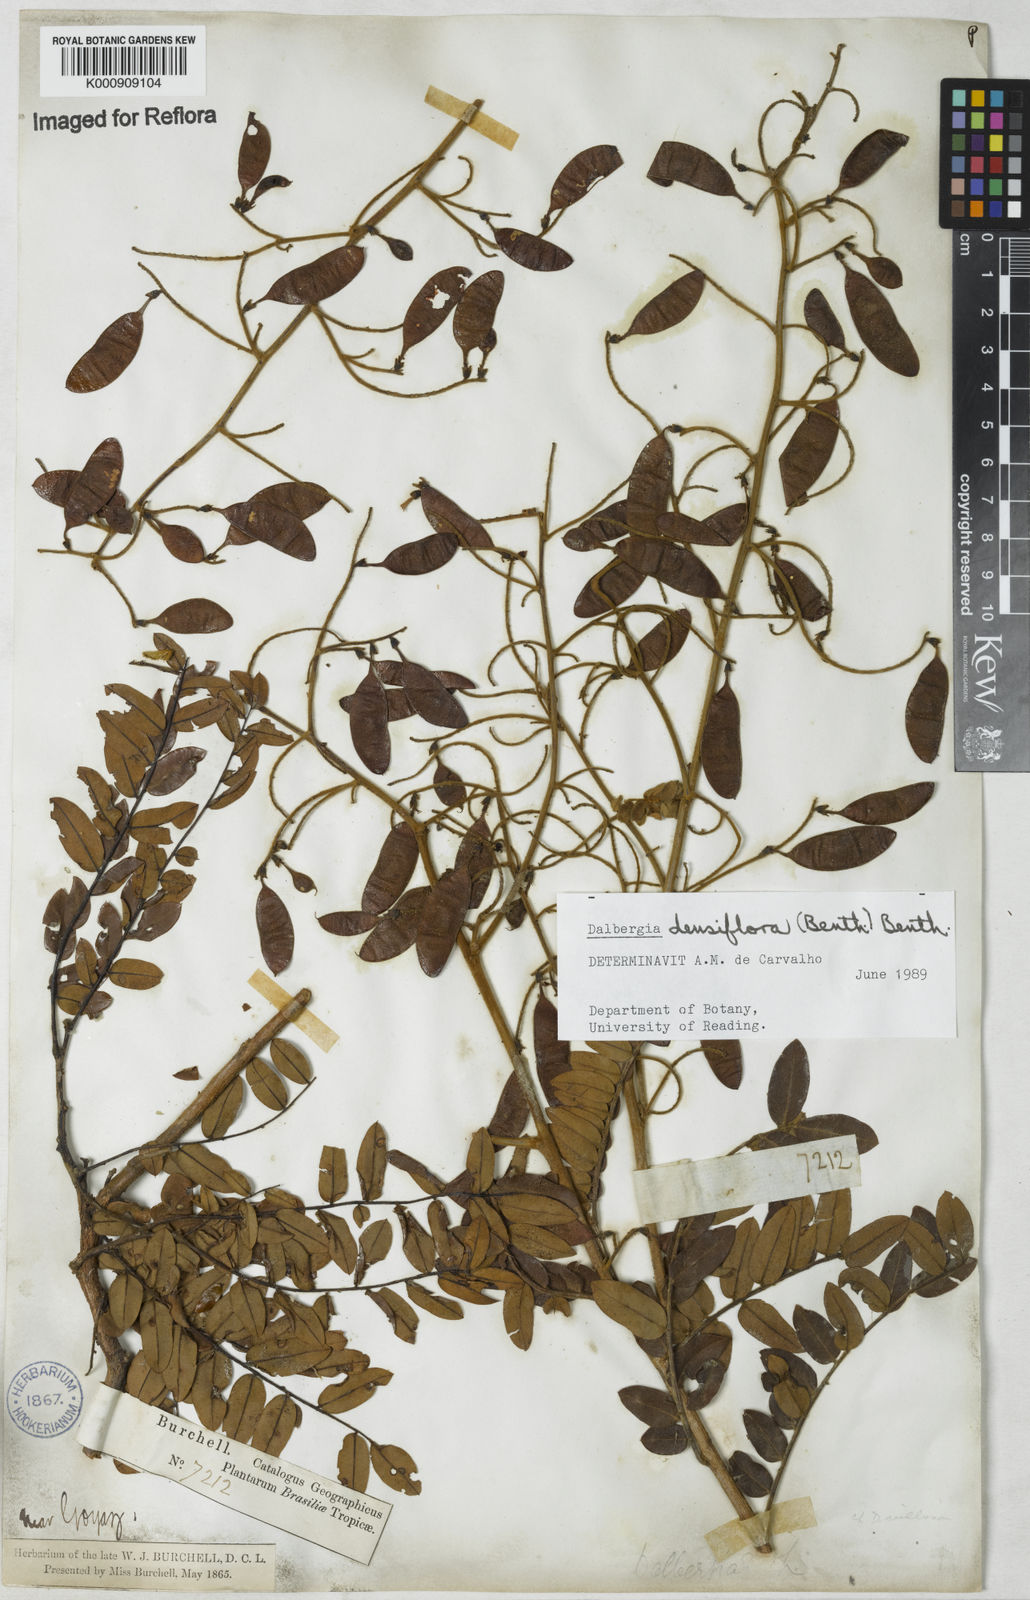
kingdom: Plantae
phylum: Tracheophyta
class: Magnoliopsida
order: Fabales
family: Fabaceae
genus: Dalbergia
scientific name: Dalbergia densiflora
